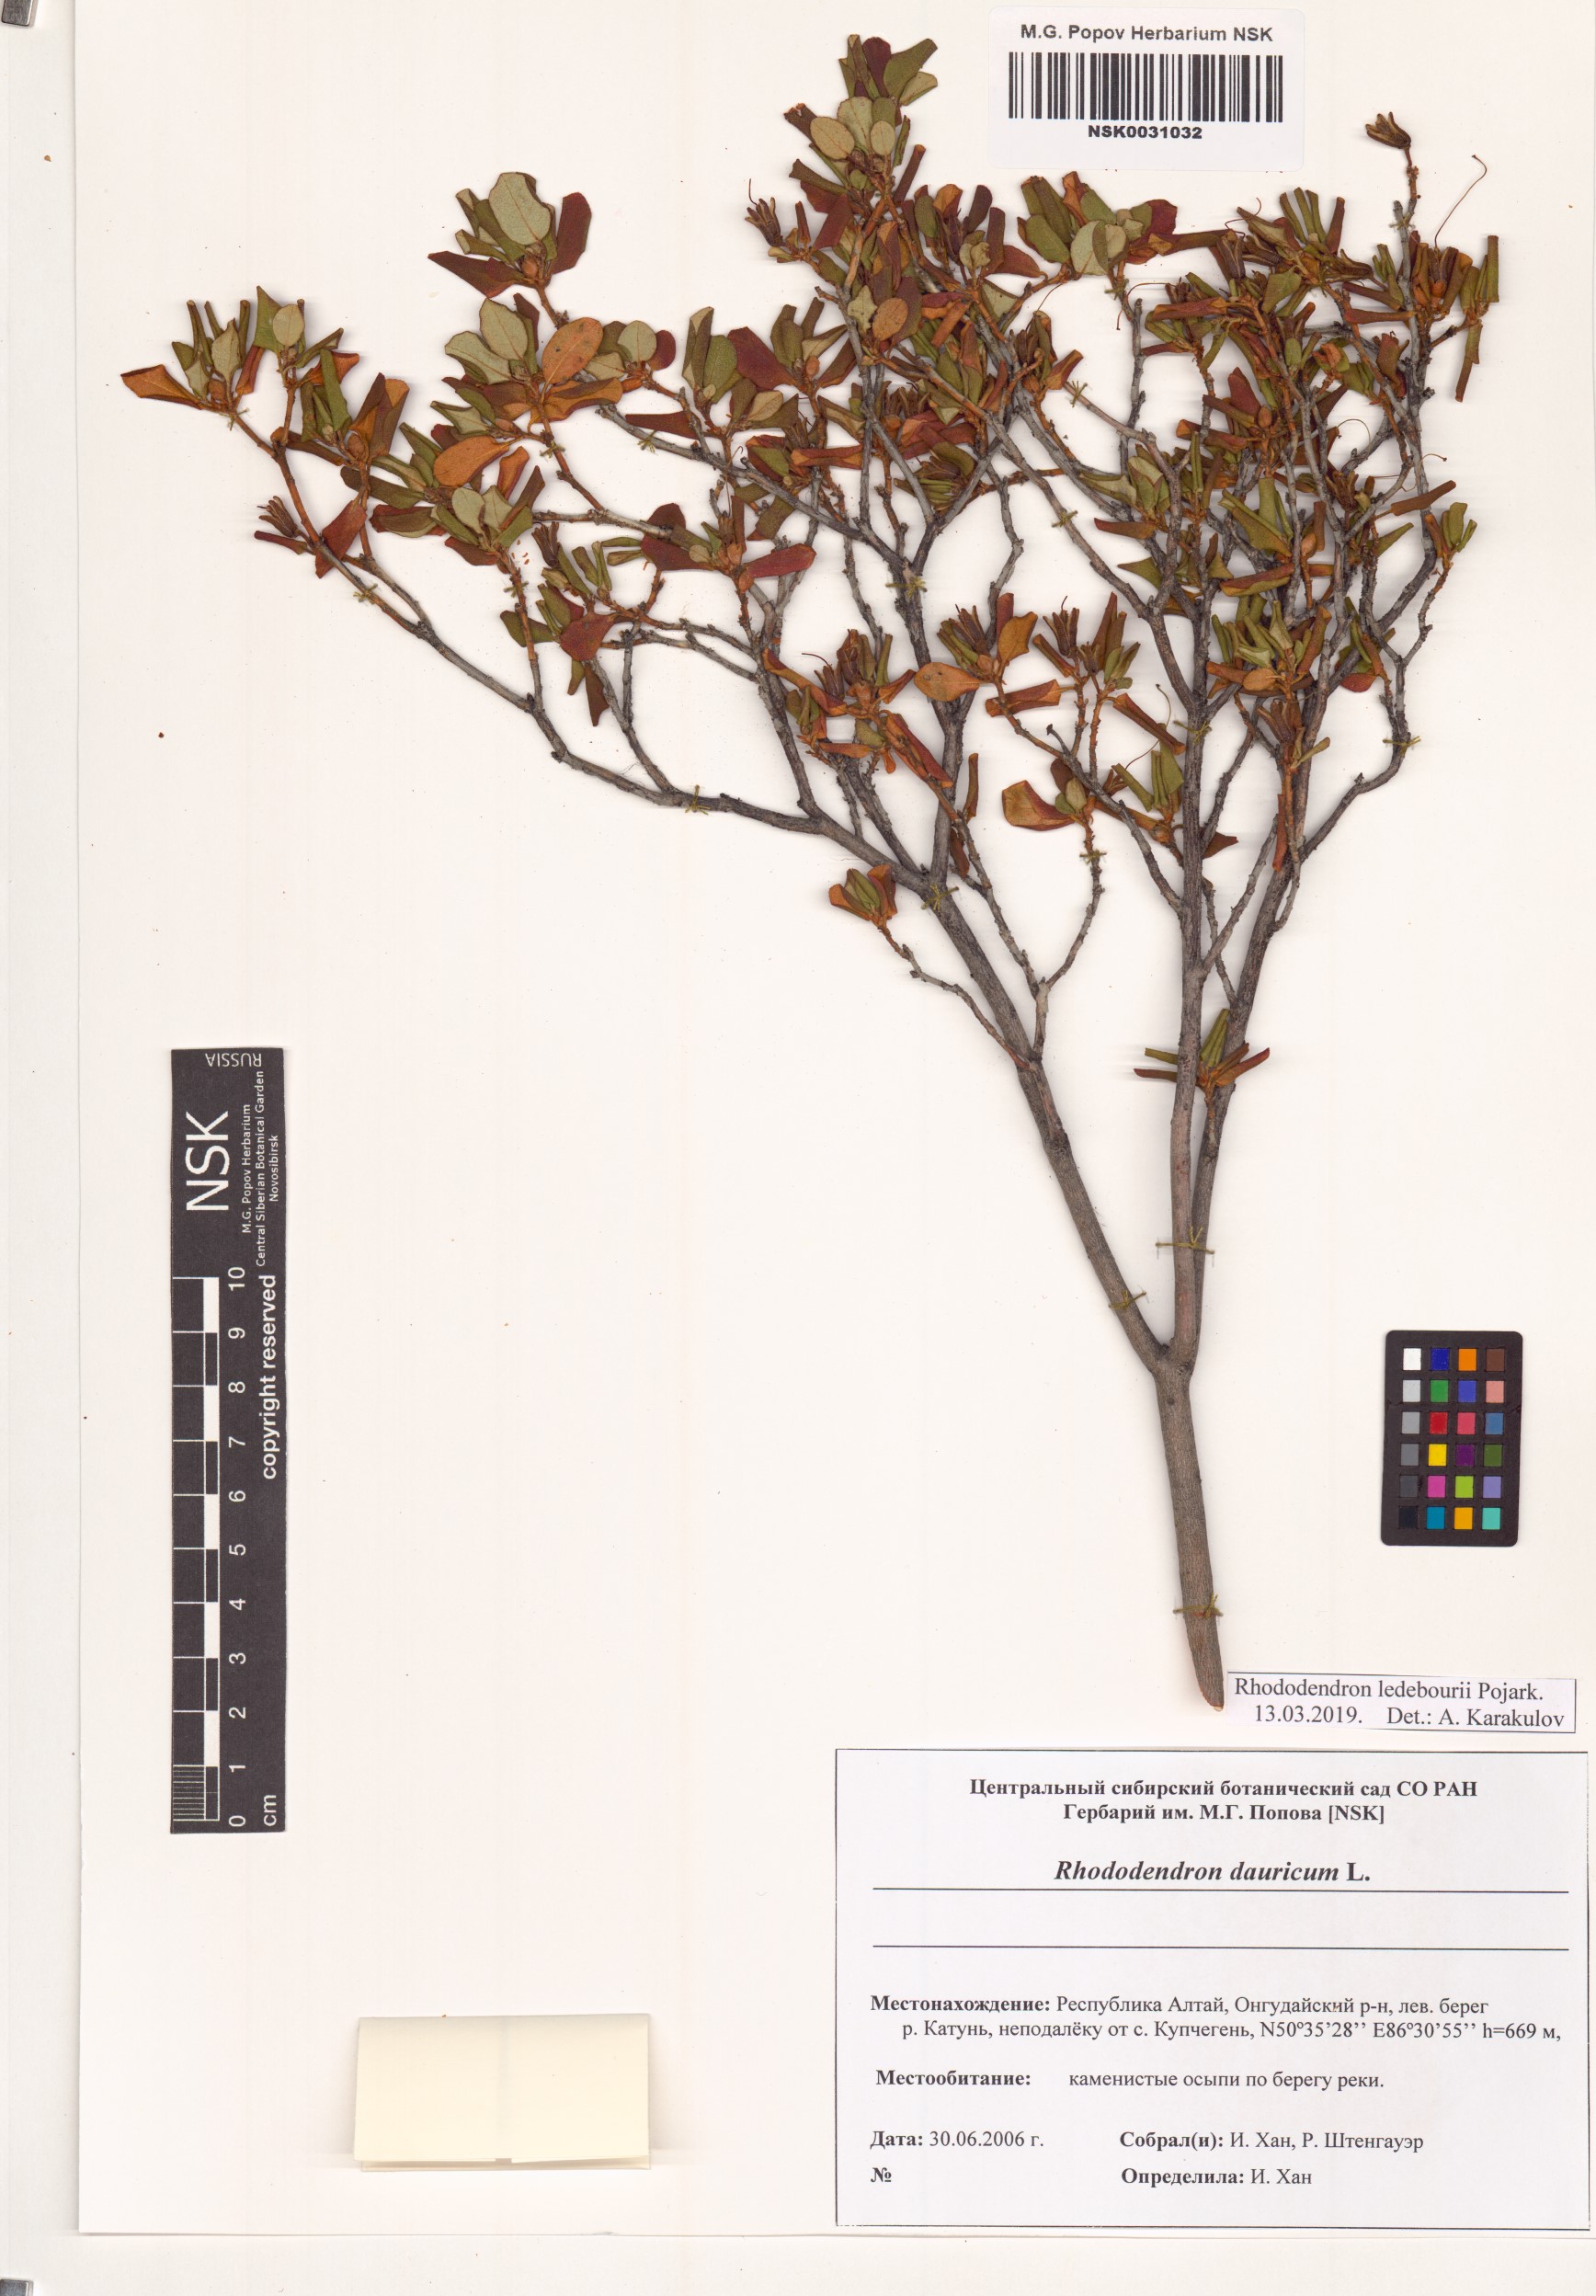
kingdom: Plantae
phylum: Tracheophyta
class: Magnoliopsida
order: Ericales
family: Ericaceae
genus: Rhododendron
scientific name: Rhododendron dauricum
